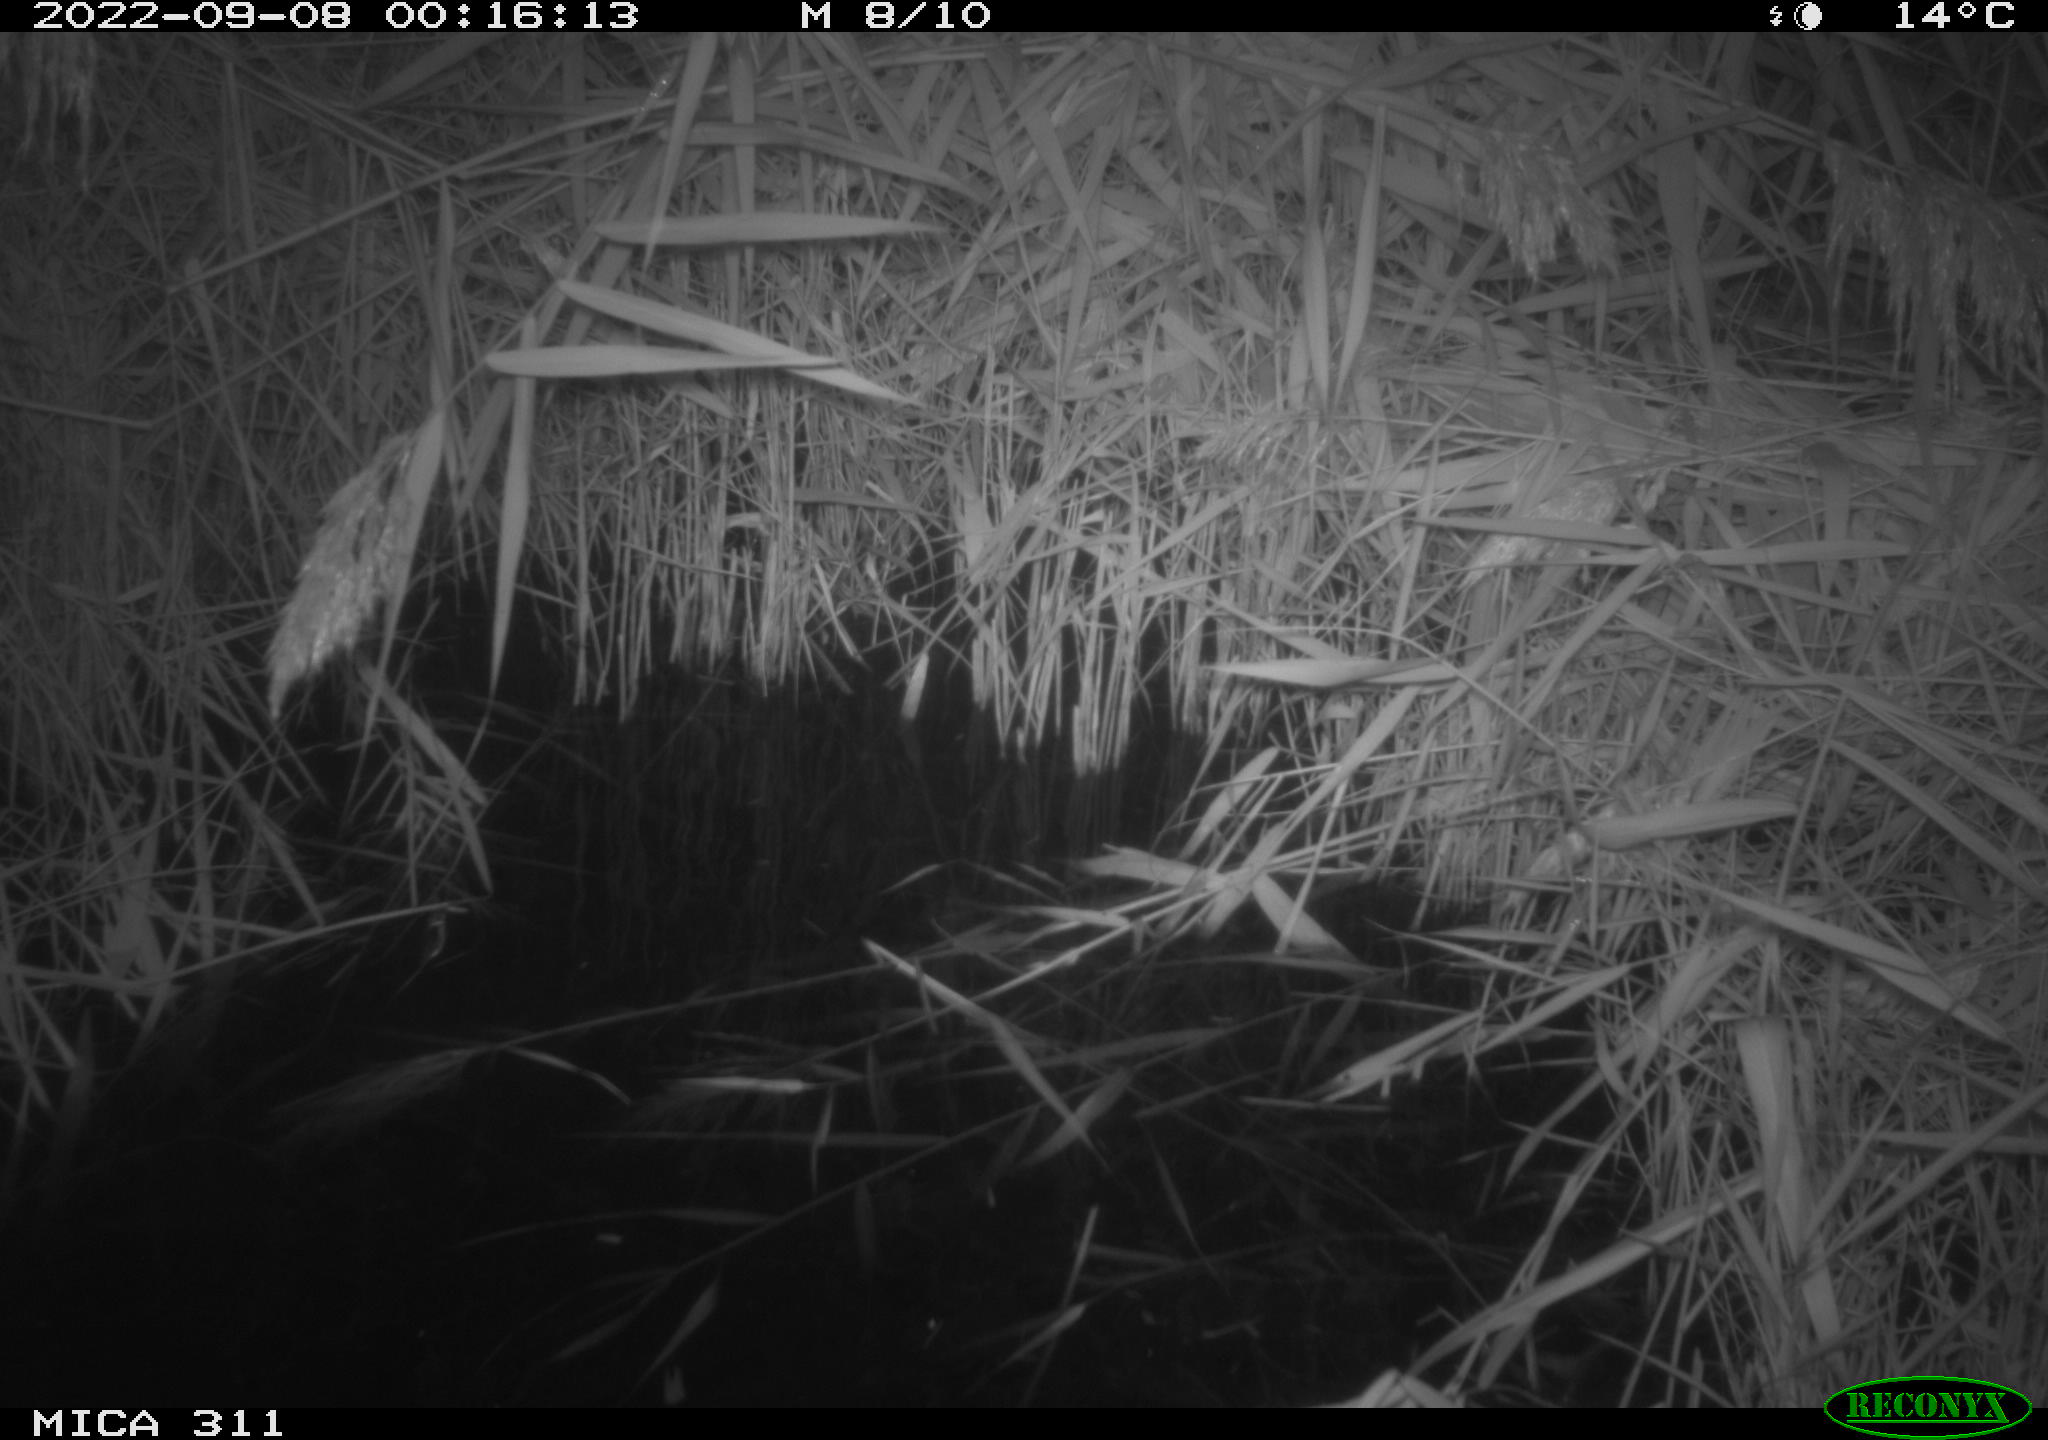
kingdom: Animalia
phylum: Chordata
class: Mammalia
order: Rodentia
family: Muridae
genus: Rattus
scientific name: Rattus norvegicus
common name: Brown rat
